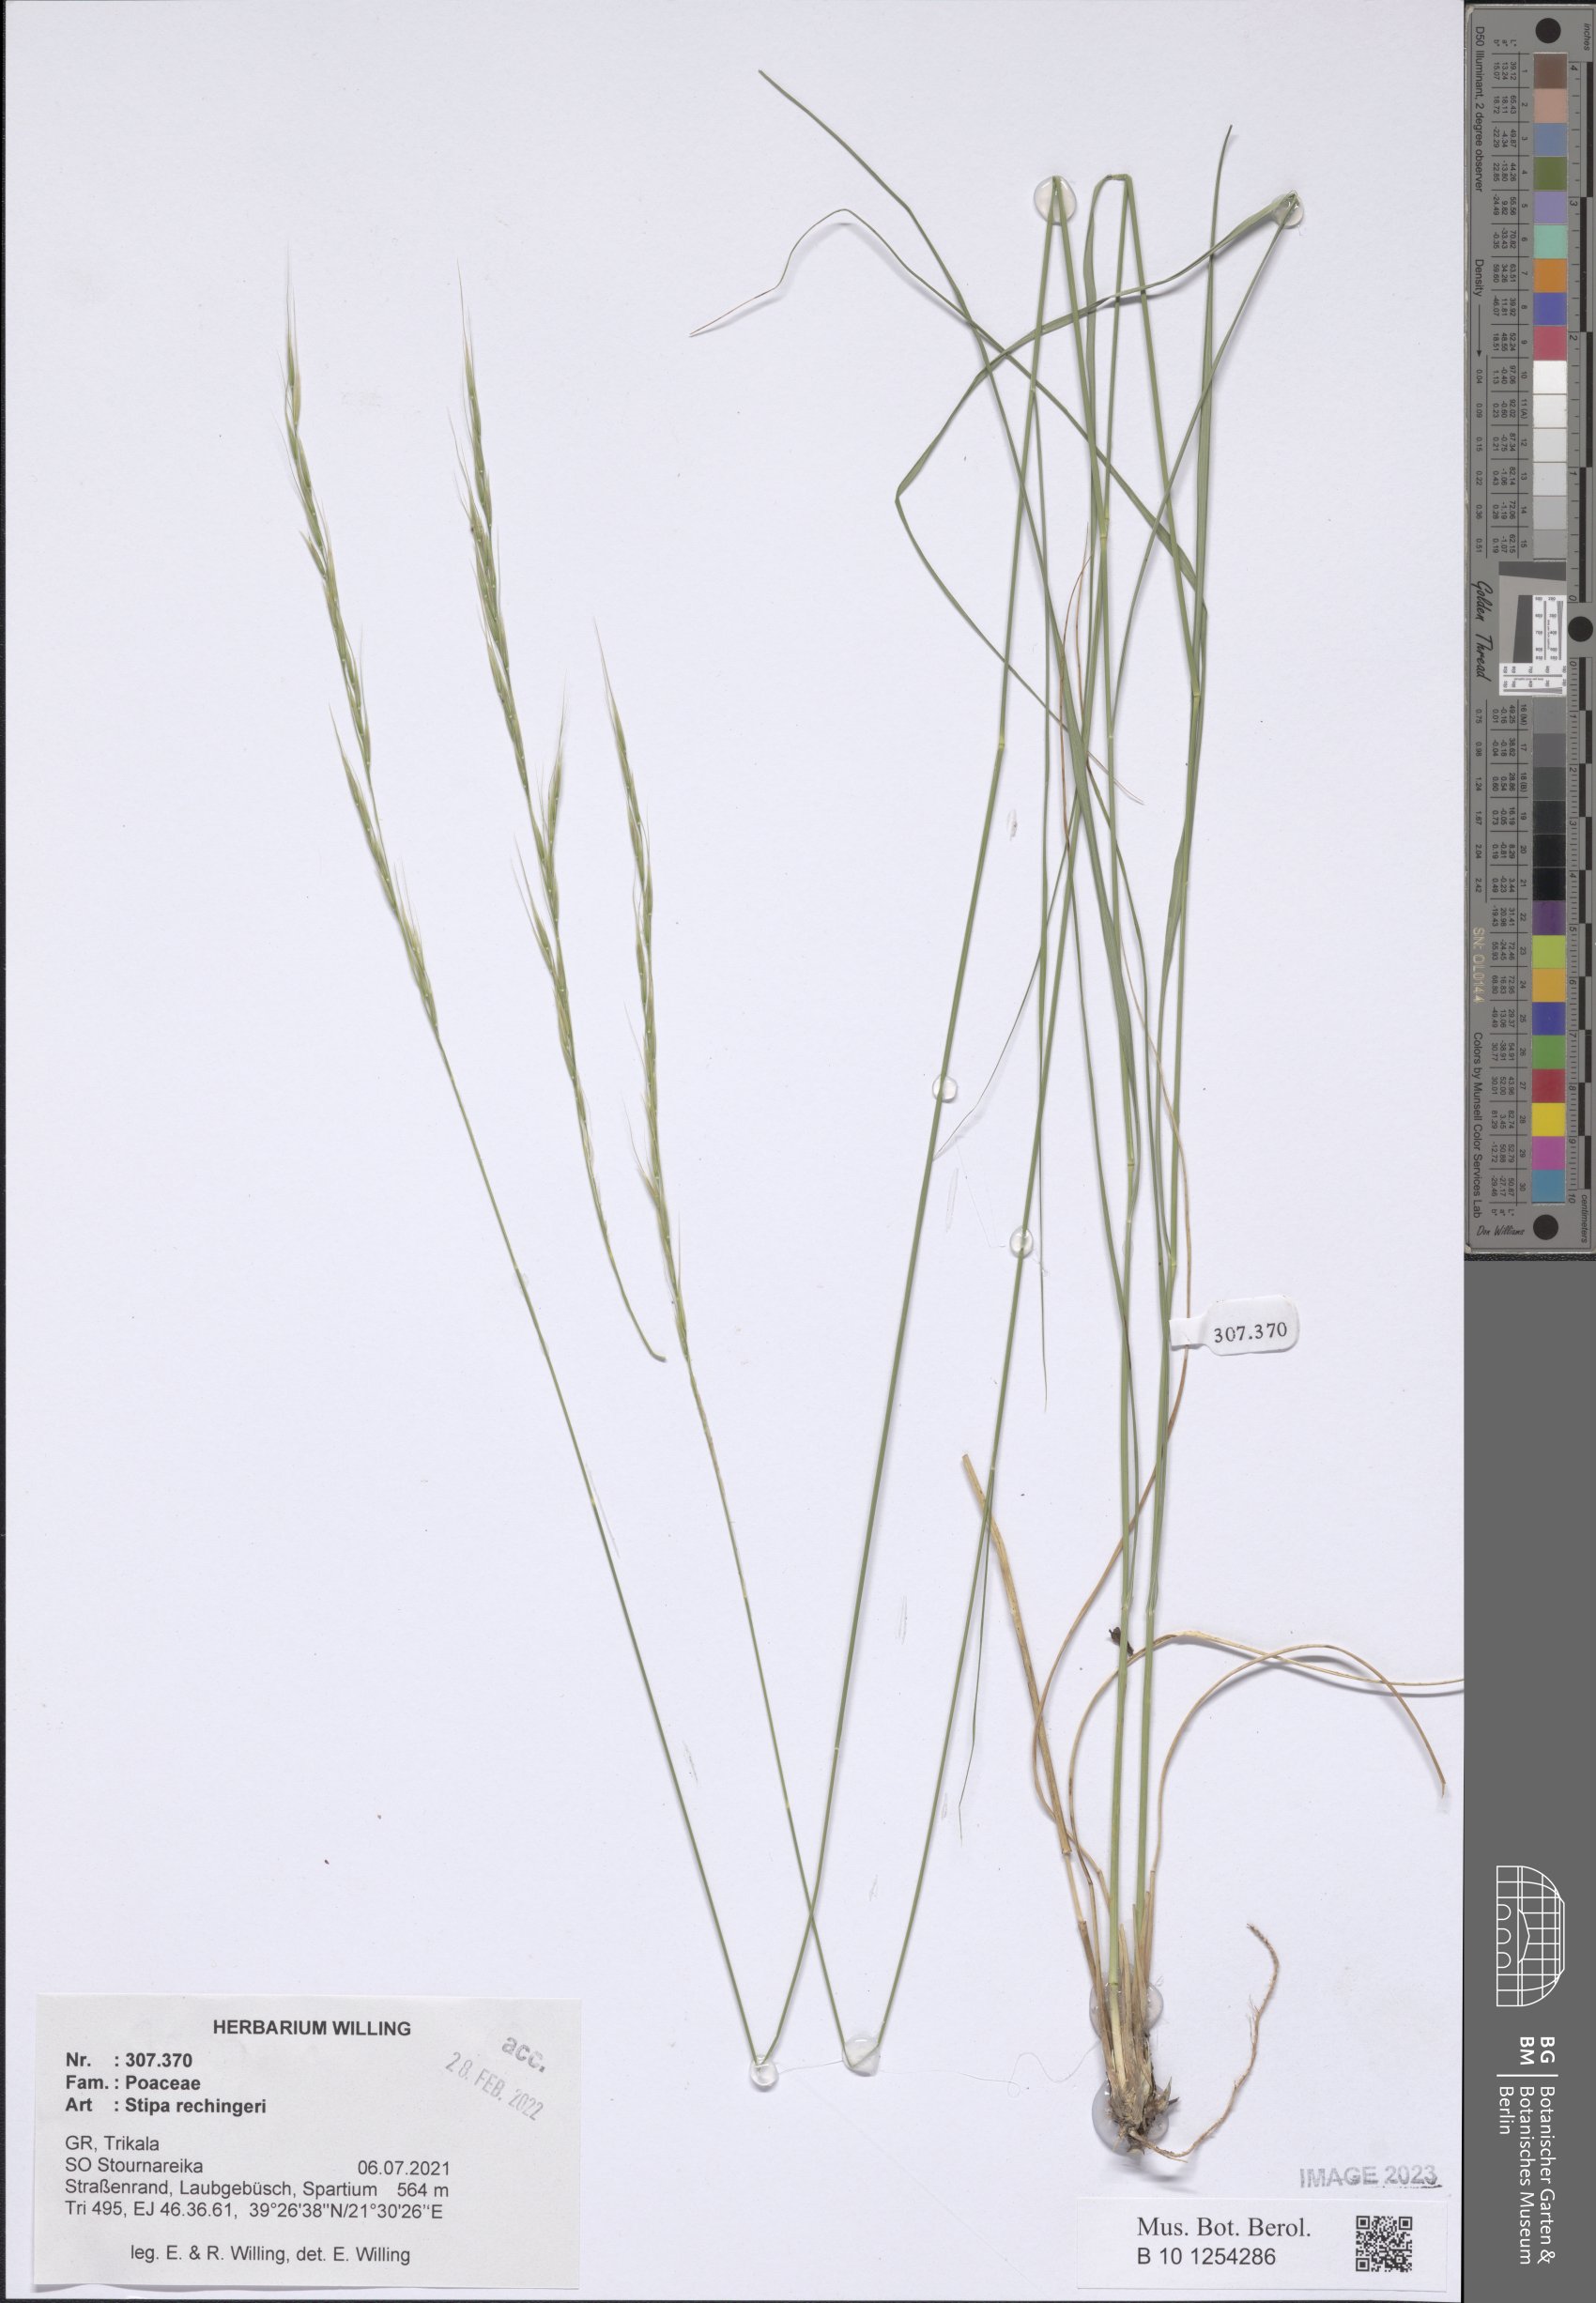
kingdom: Plantae
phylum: Tracheophyta
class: Liliopsida
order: Poales
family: Poaceae
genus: Stipa
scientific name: Stipa rechingeri
